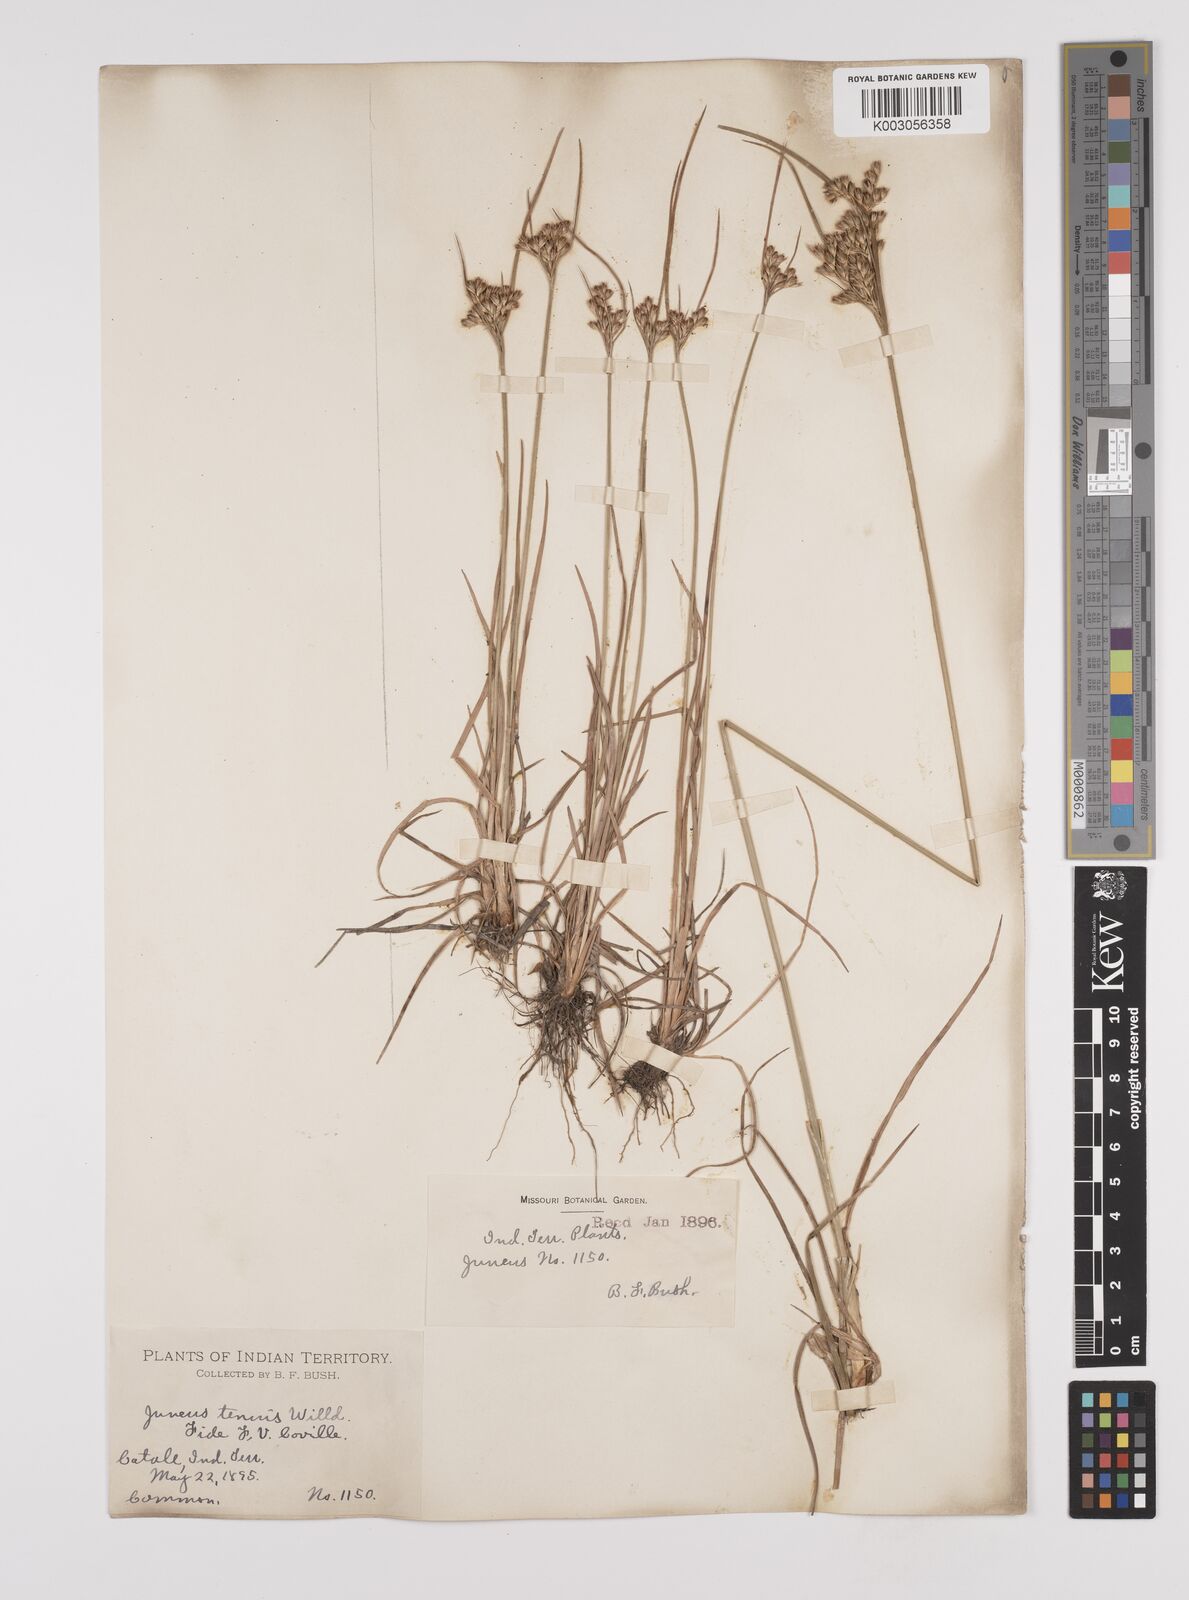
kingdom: Plantae
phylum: Tracheophyta
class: Liliopsida
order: Poales
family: Juncaceae
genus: Juncus
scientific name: Juncus tenuis
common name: Slender rush
